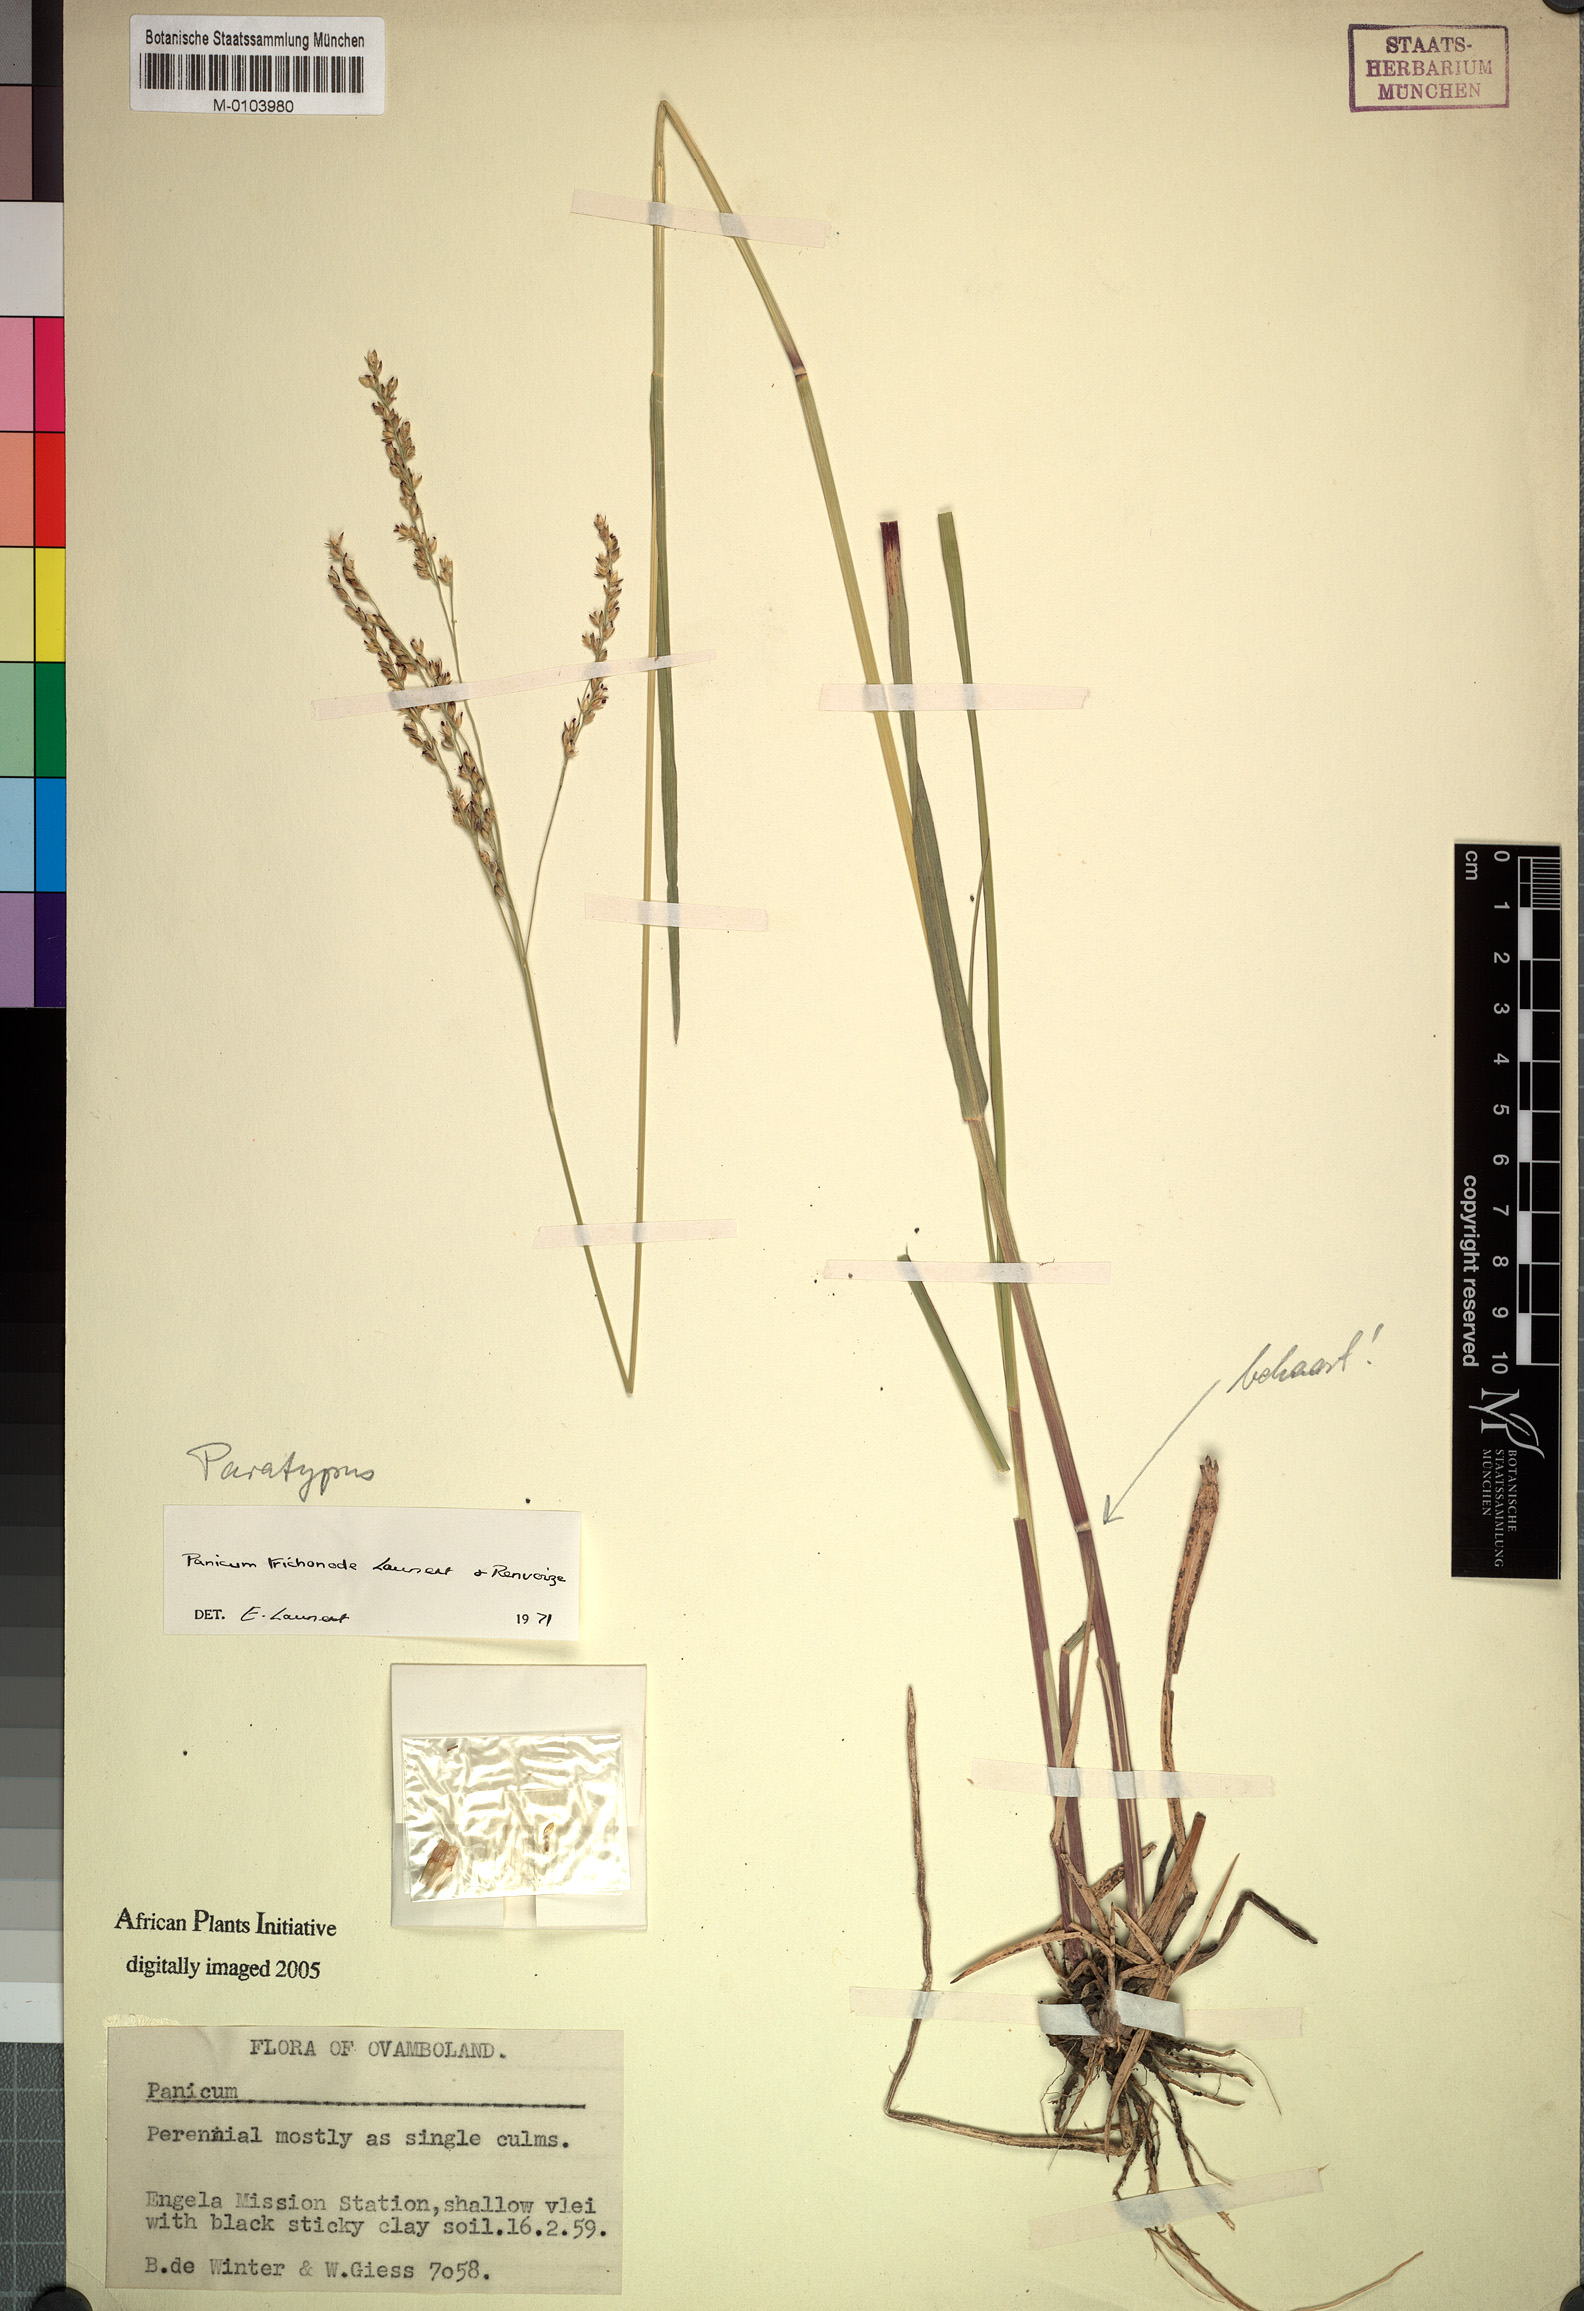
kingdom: Plantae
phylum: Tracheophyta
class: Liliopsida
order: Poales
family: Poaceae
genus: Panicum
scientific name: Panicum trichonode
